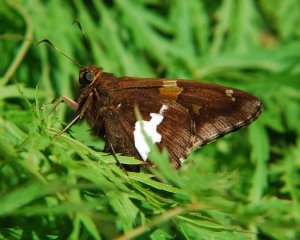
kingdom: Animalia
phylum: Arthropoda
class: Insecta
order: Lepidoptera
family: Hesperiidae
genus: Epargyreus
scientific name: Epargyreus clarus
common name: Silver-spotted Skipper
